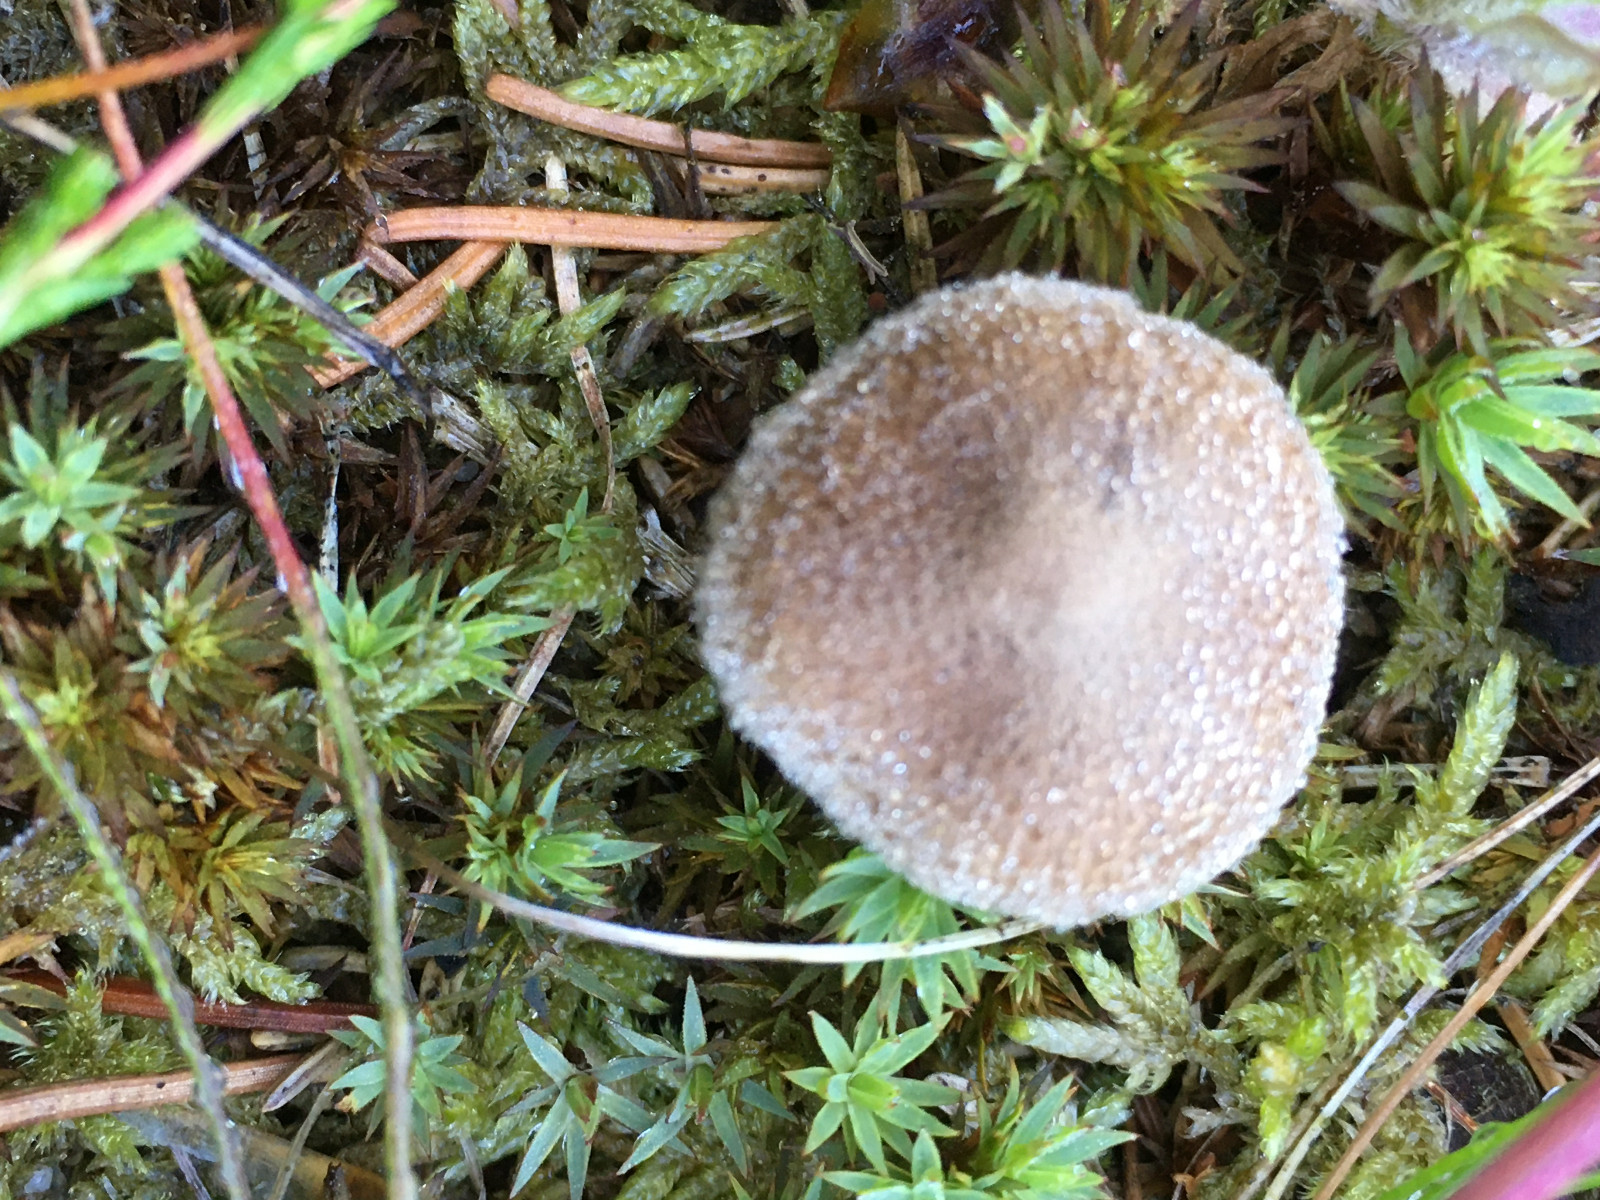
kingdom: Fungi
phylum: Basidiomycota
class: Agaricomycetes
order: Agaricales
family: Inocybaceae
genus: Inocybe
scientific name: Inocybe
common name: trævlhat
